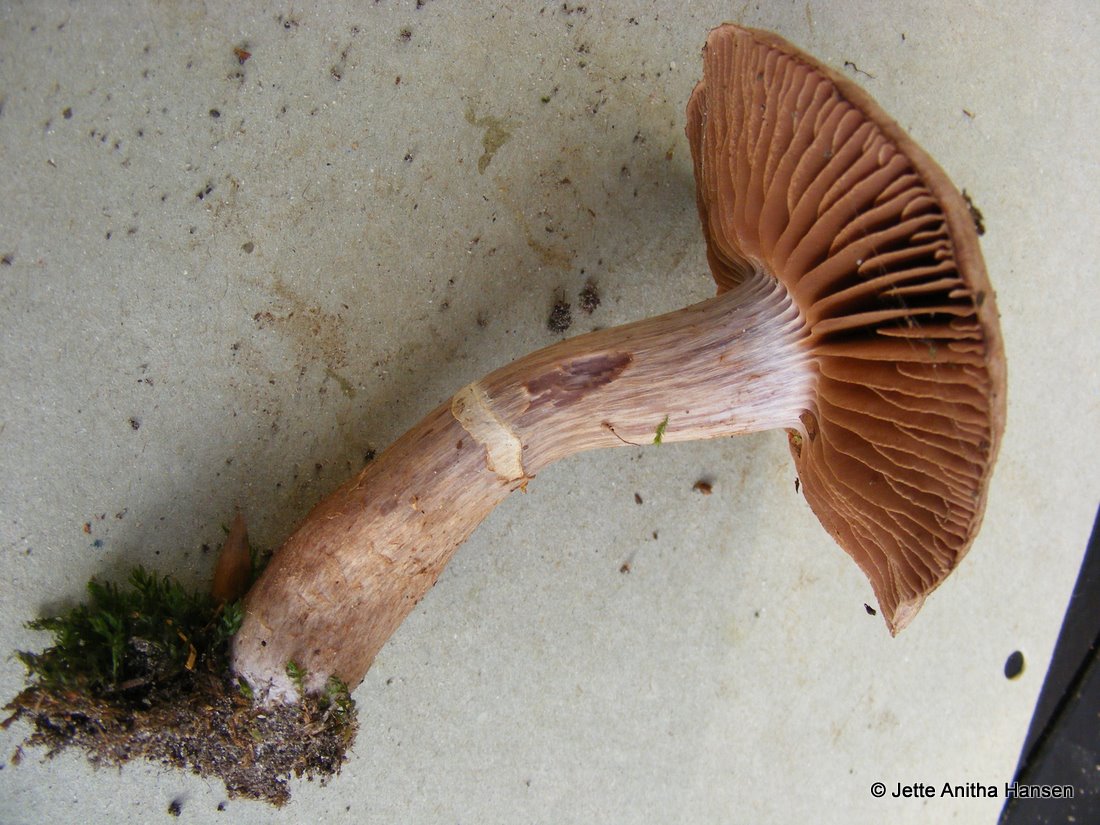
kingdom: Fungi
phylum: Basidiomycota
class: Agaricomycetes
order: Agaricales
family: Cortinariaceae
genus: Cortinarius
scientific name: Cortinarius torvus
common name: champignonagtig slørhat
